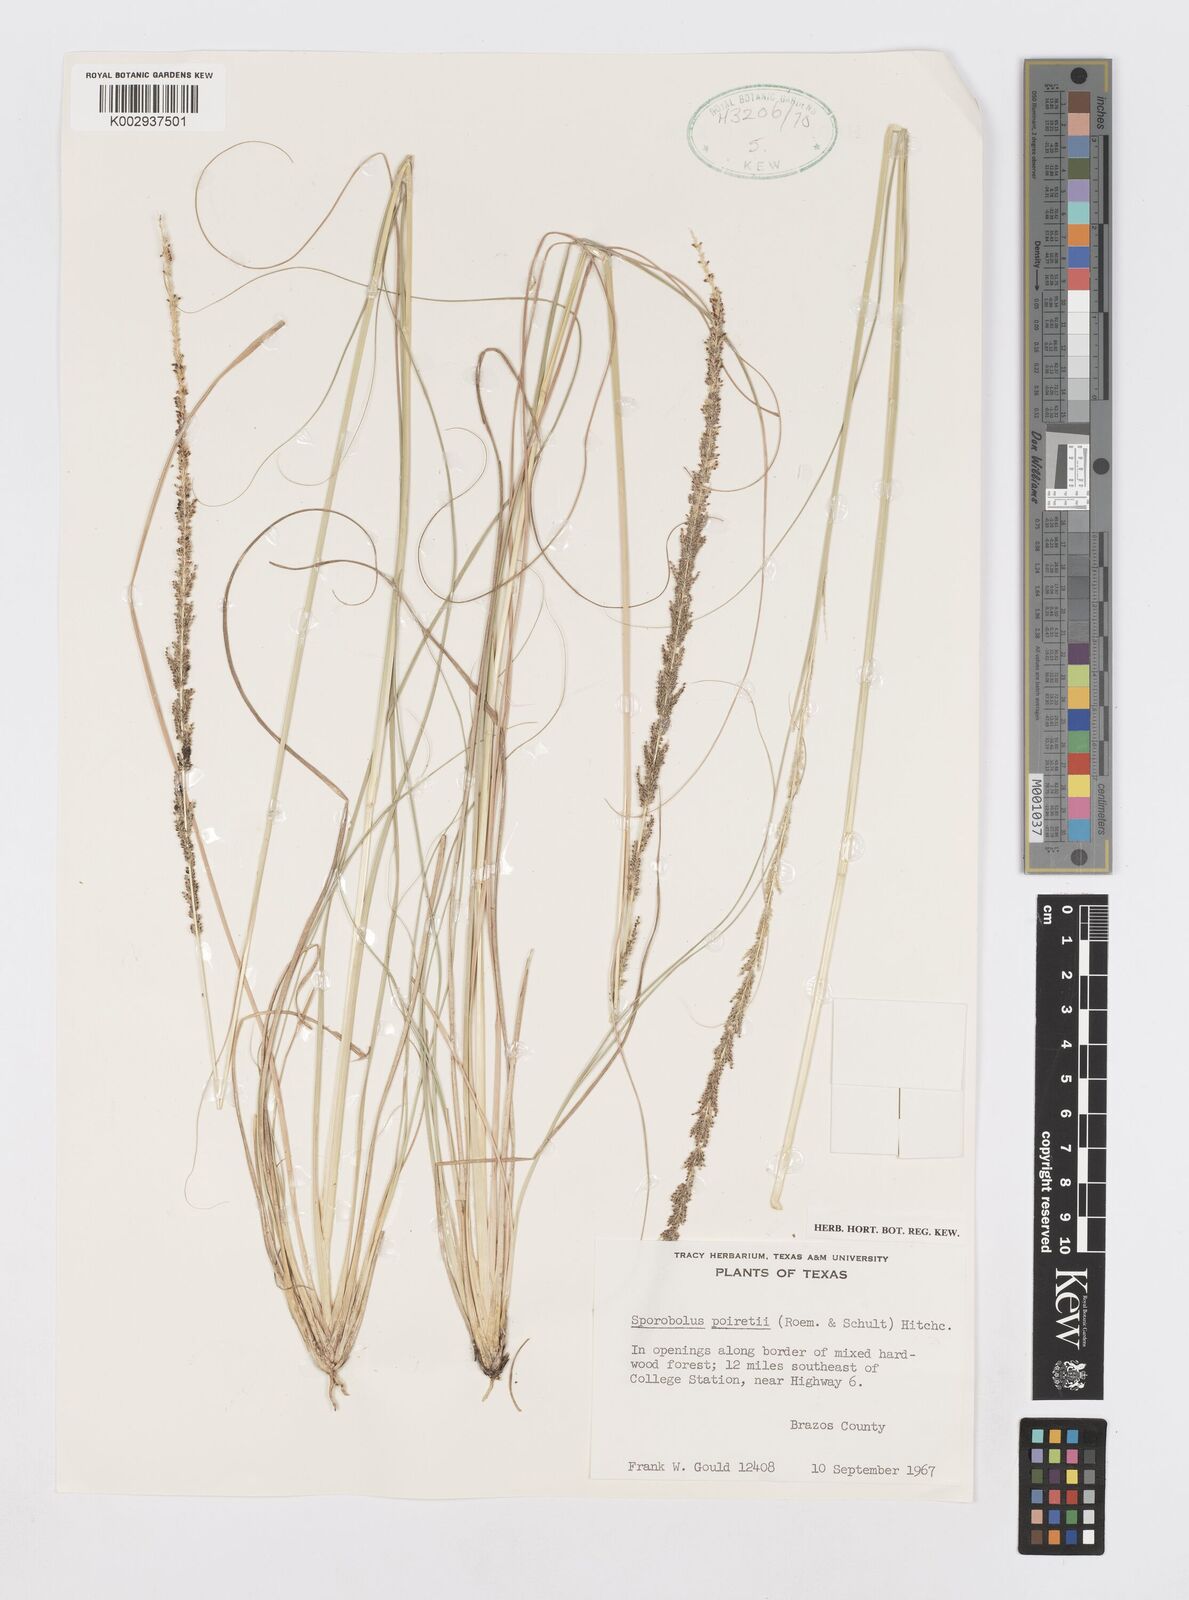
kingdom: Plantae
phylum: Tracheophyta
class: Liliopsida
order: Poales
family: Poaceae
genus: Sporobolus
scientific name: Sporobolus junceus
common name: Lizard grass
